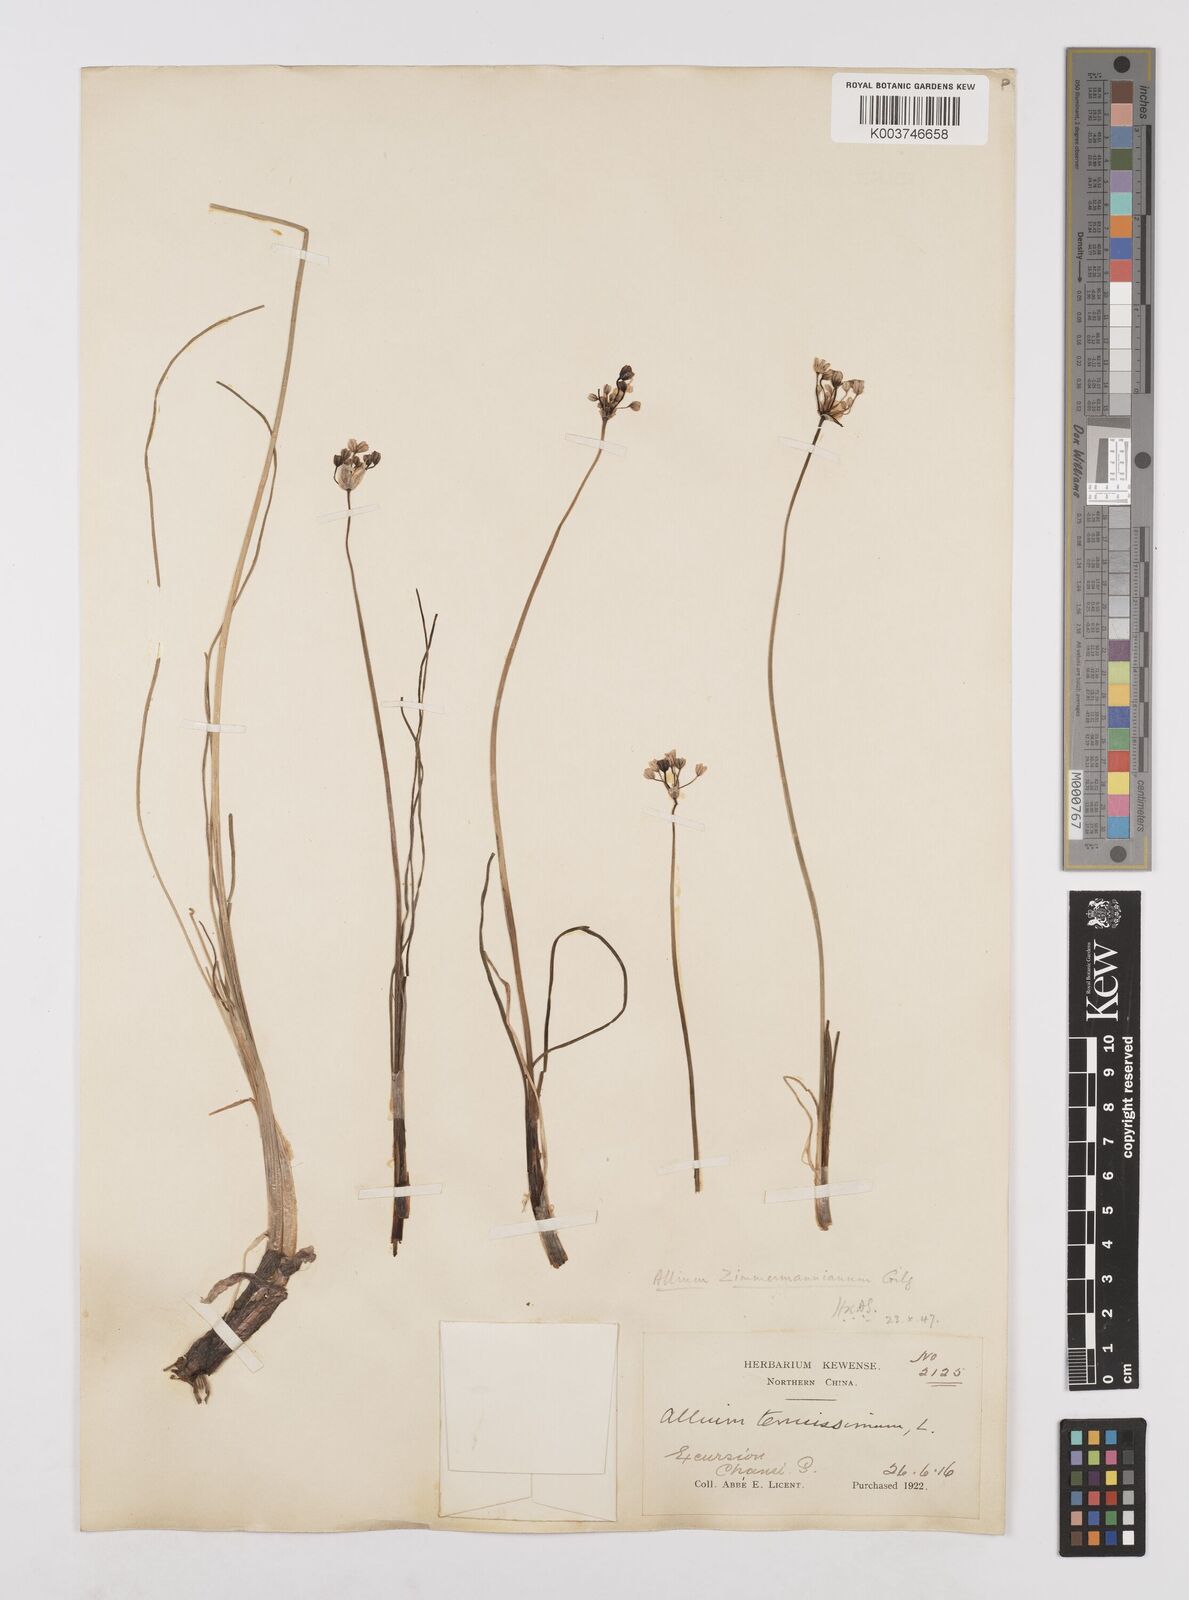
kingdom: Plantae
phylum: Tracheophyta
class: Liliopsida
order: Asparagales
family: Amaryllidaceae
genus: Allium
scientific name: Allium anisopodium
